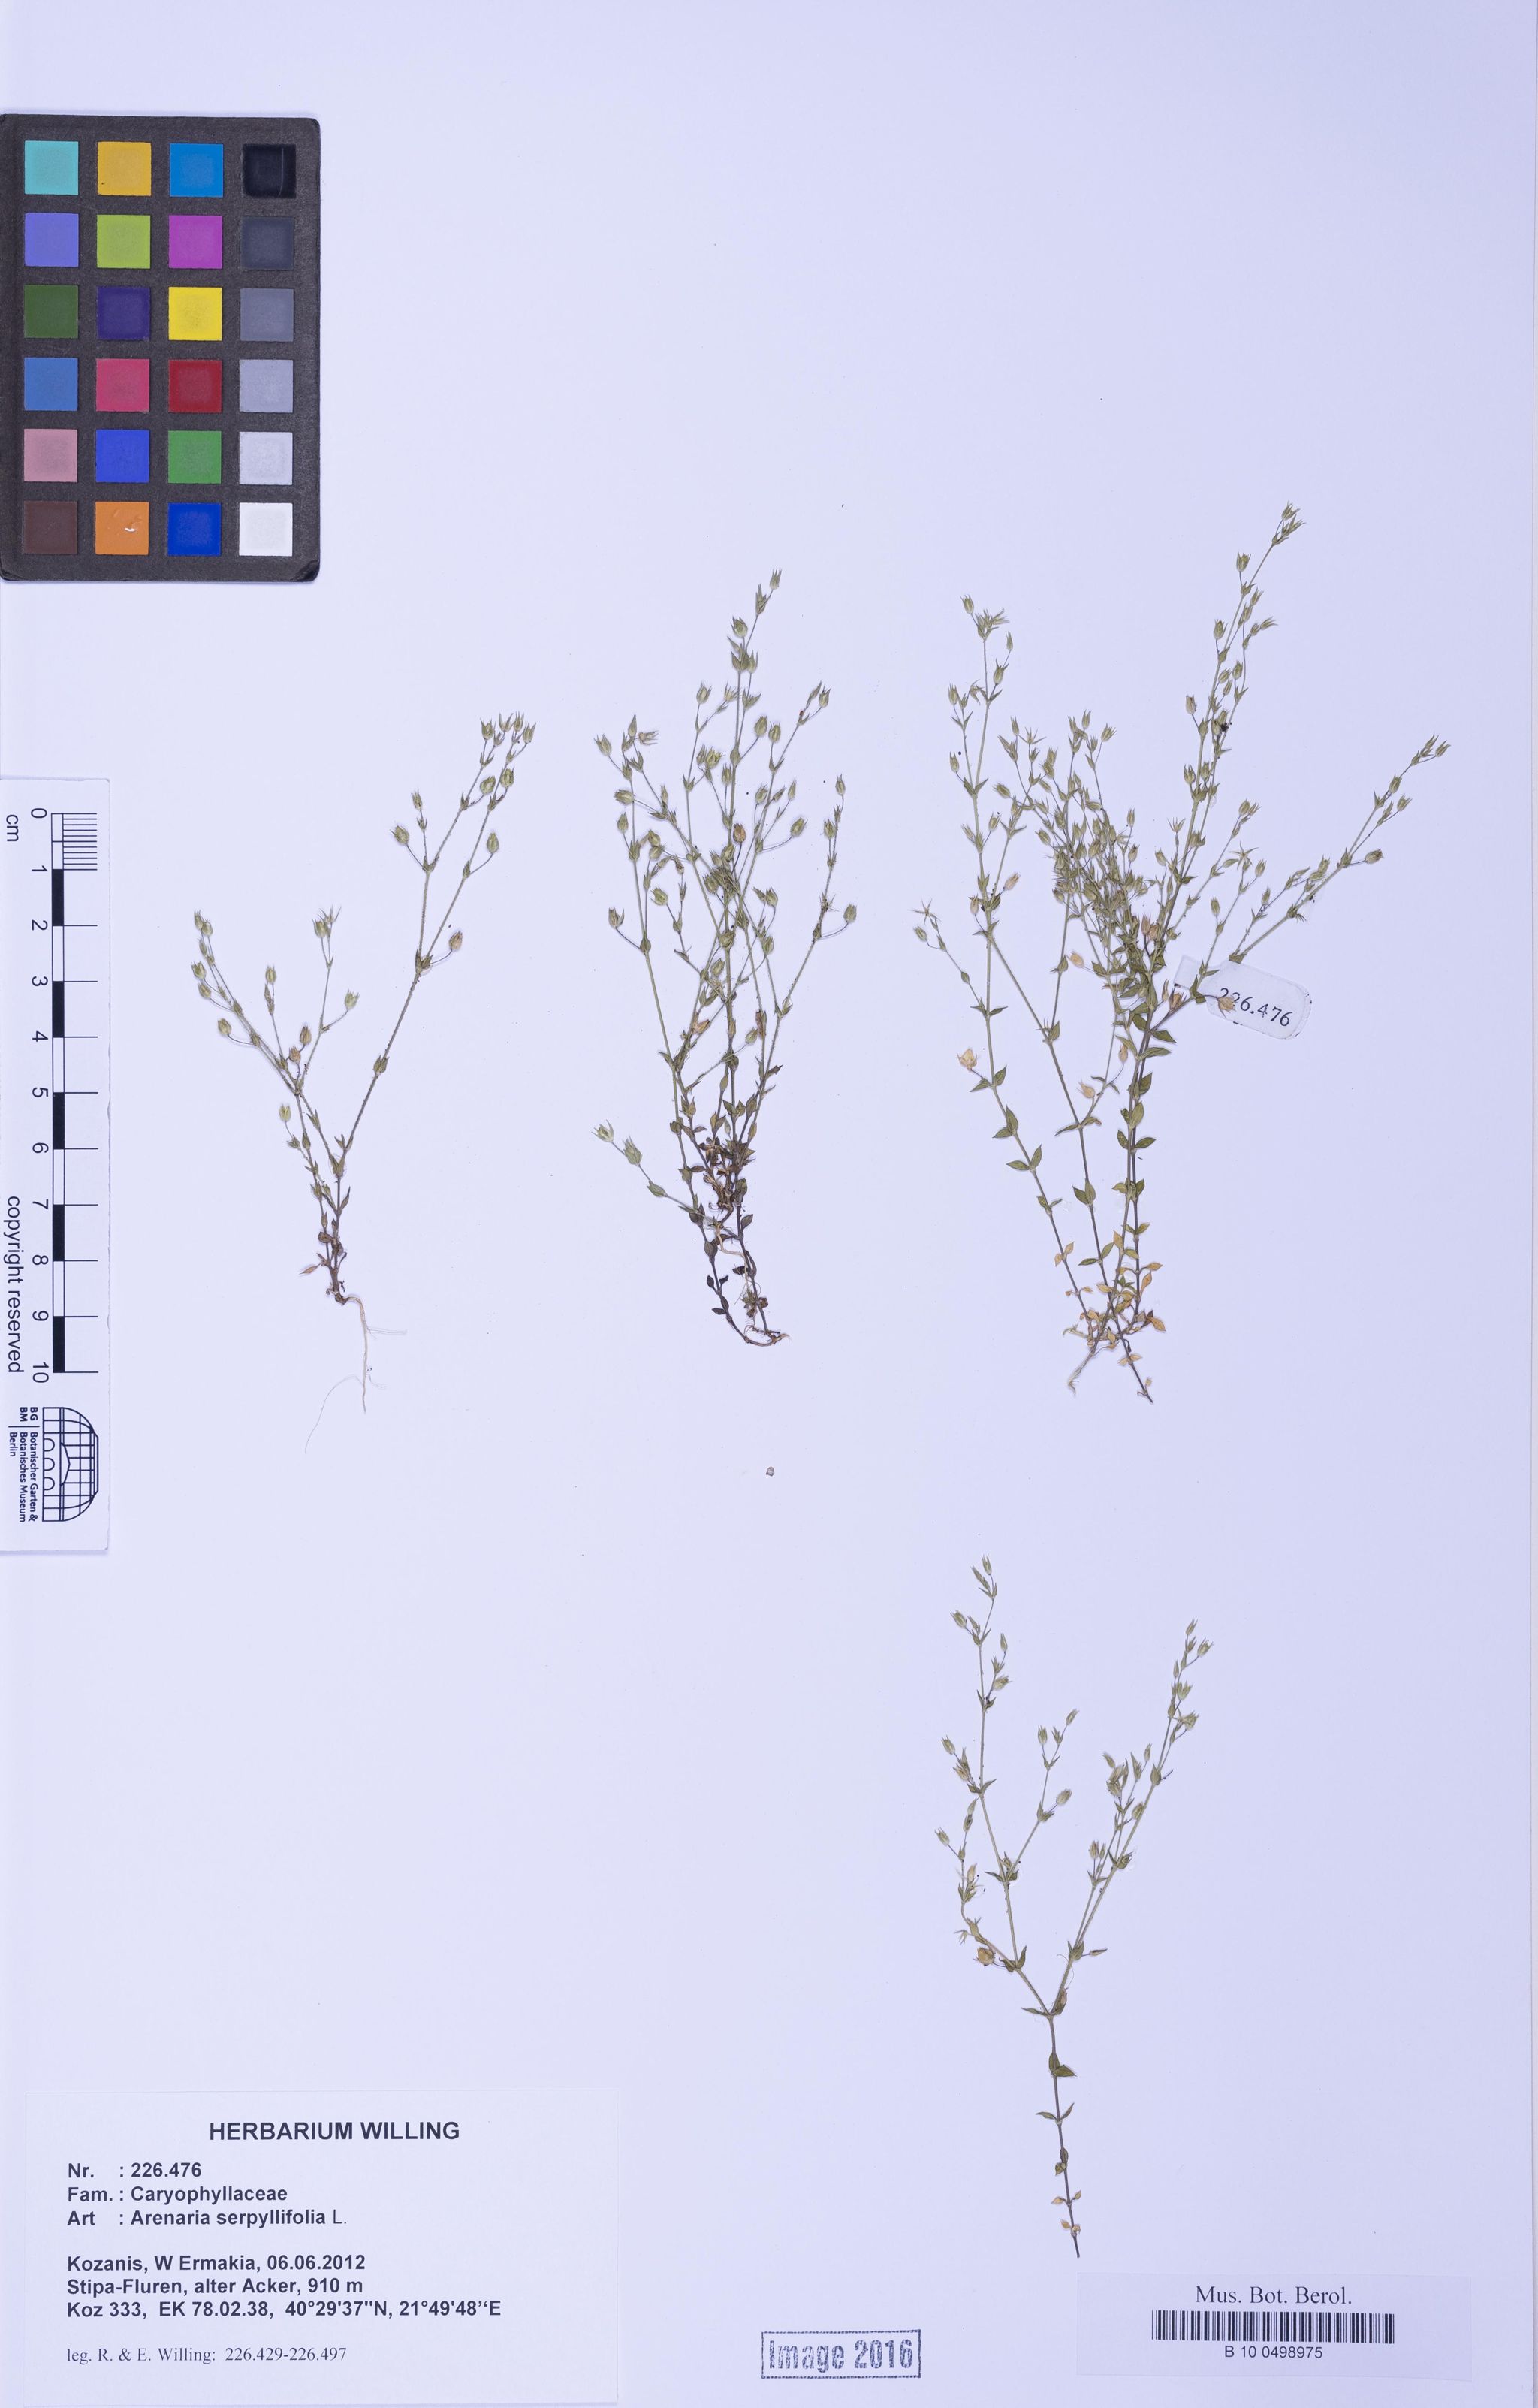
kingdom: Plantae
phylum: Tracheophyta
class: Magnoliopsida
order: Caryophyllales
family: Caryophyllaceae
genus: Arenaria
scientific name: Arenaria serpyllifolia
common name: Thyme-leaved sandwort
